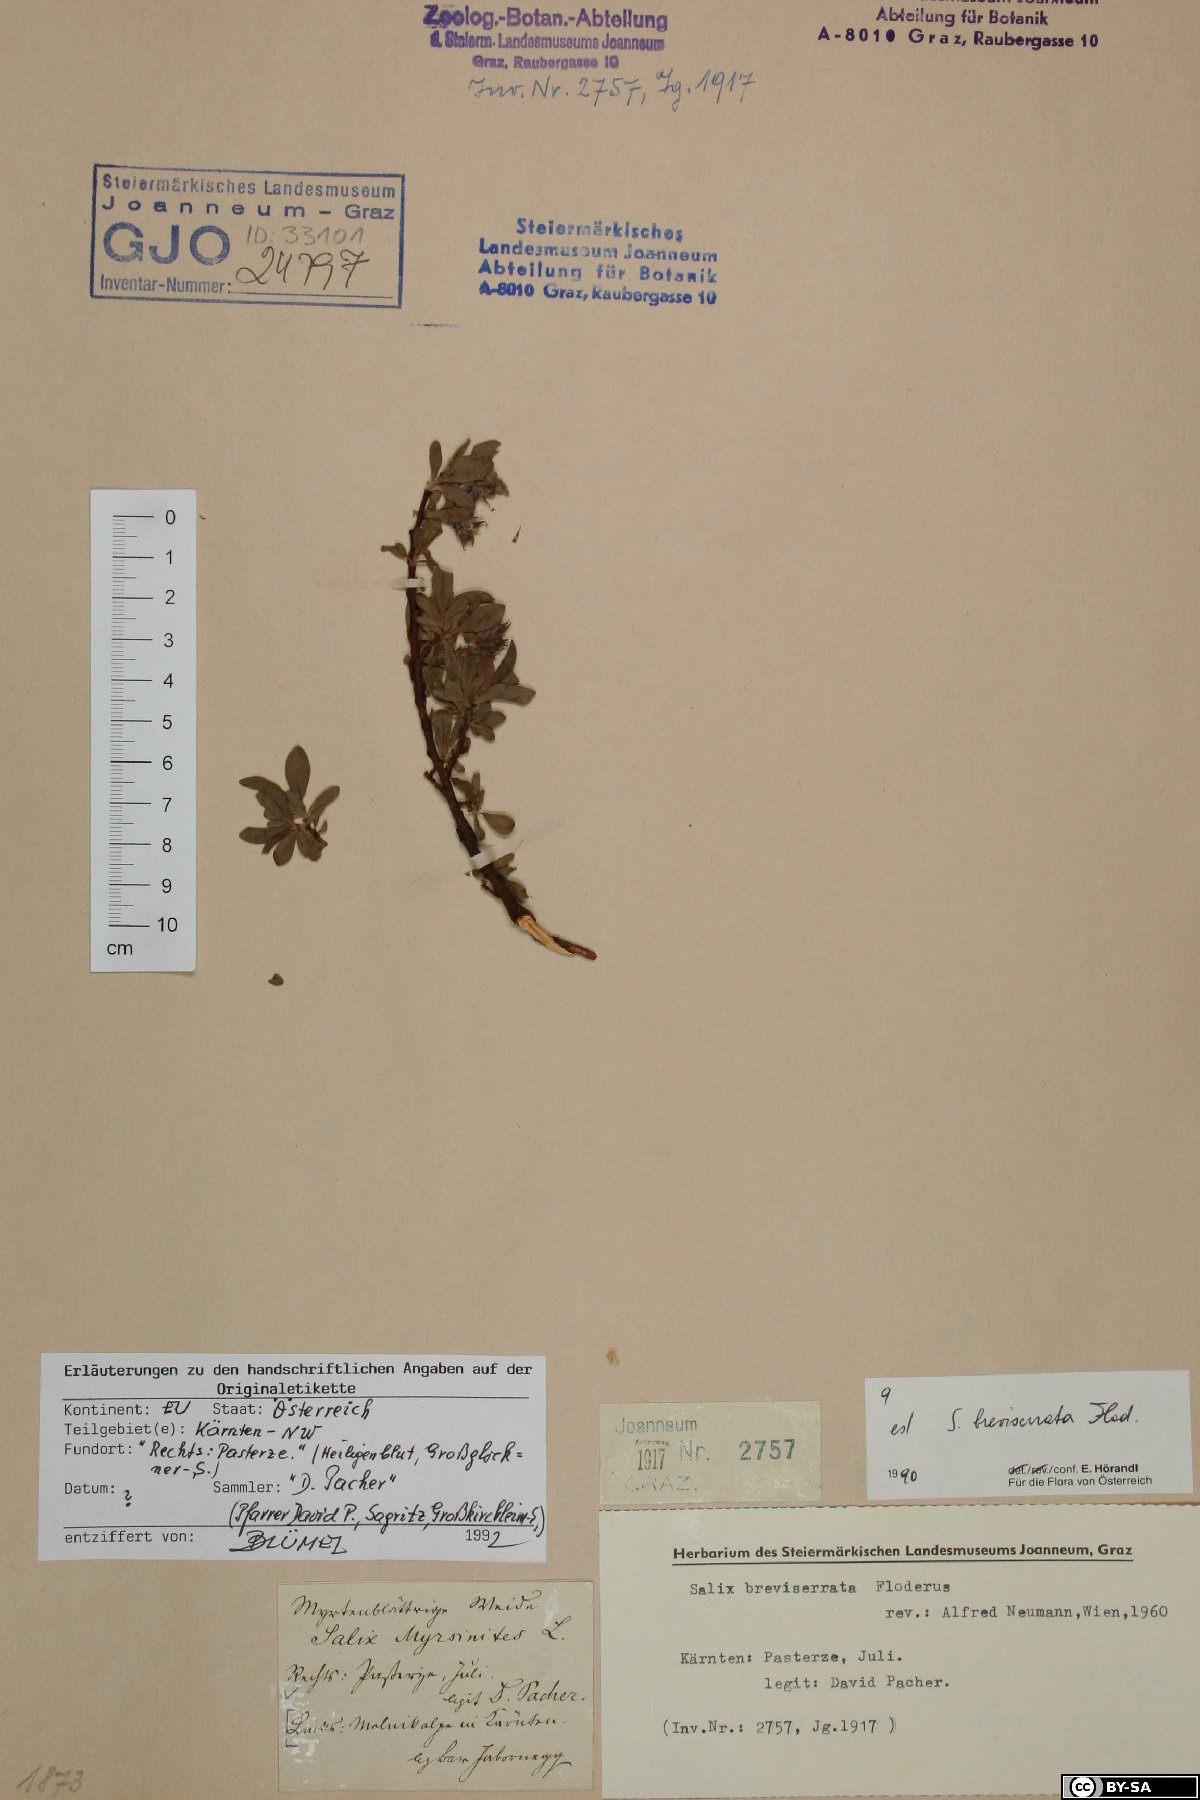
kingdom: Plantae
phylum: Tracheophyta
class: Magnoliopsida
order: Malpighiales
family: Salicaceae
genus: Salix
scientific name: Salix breviserrata
